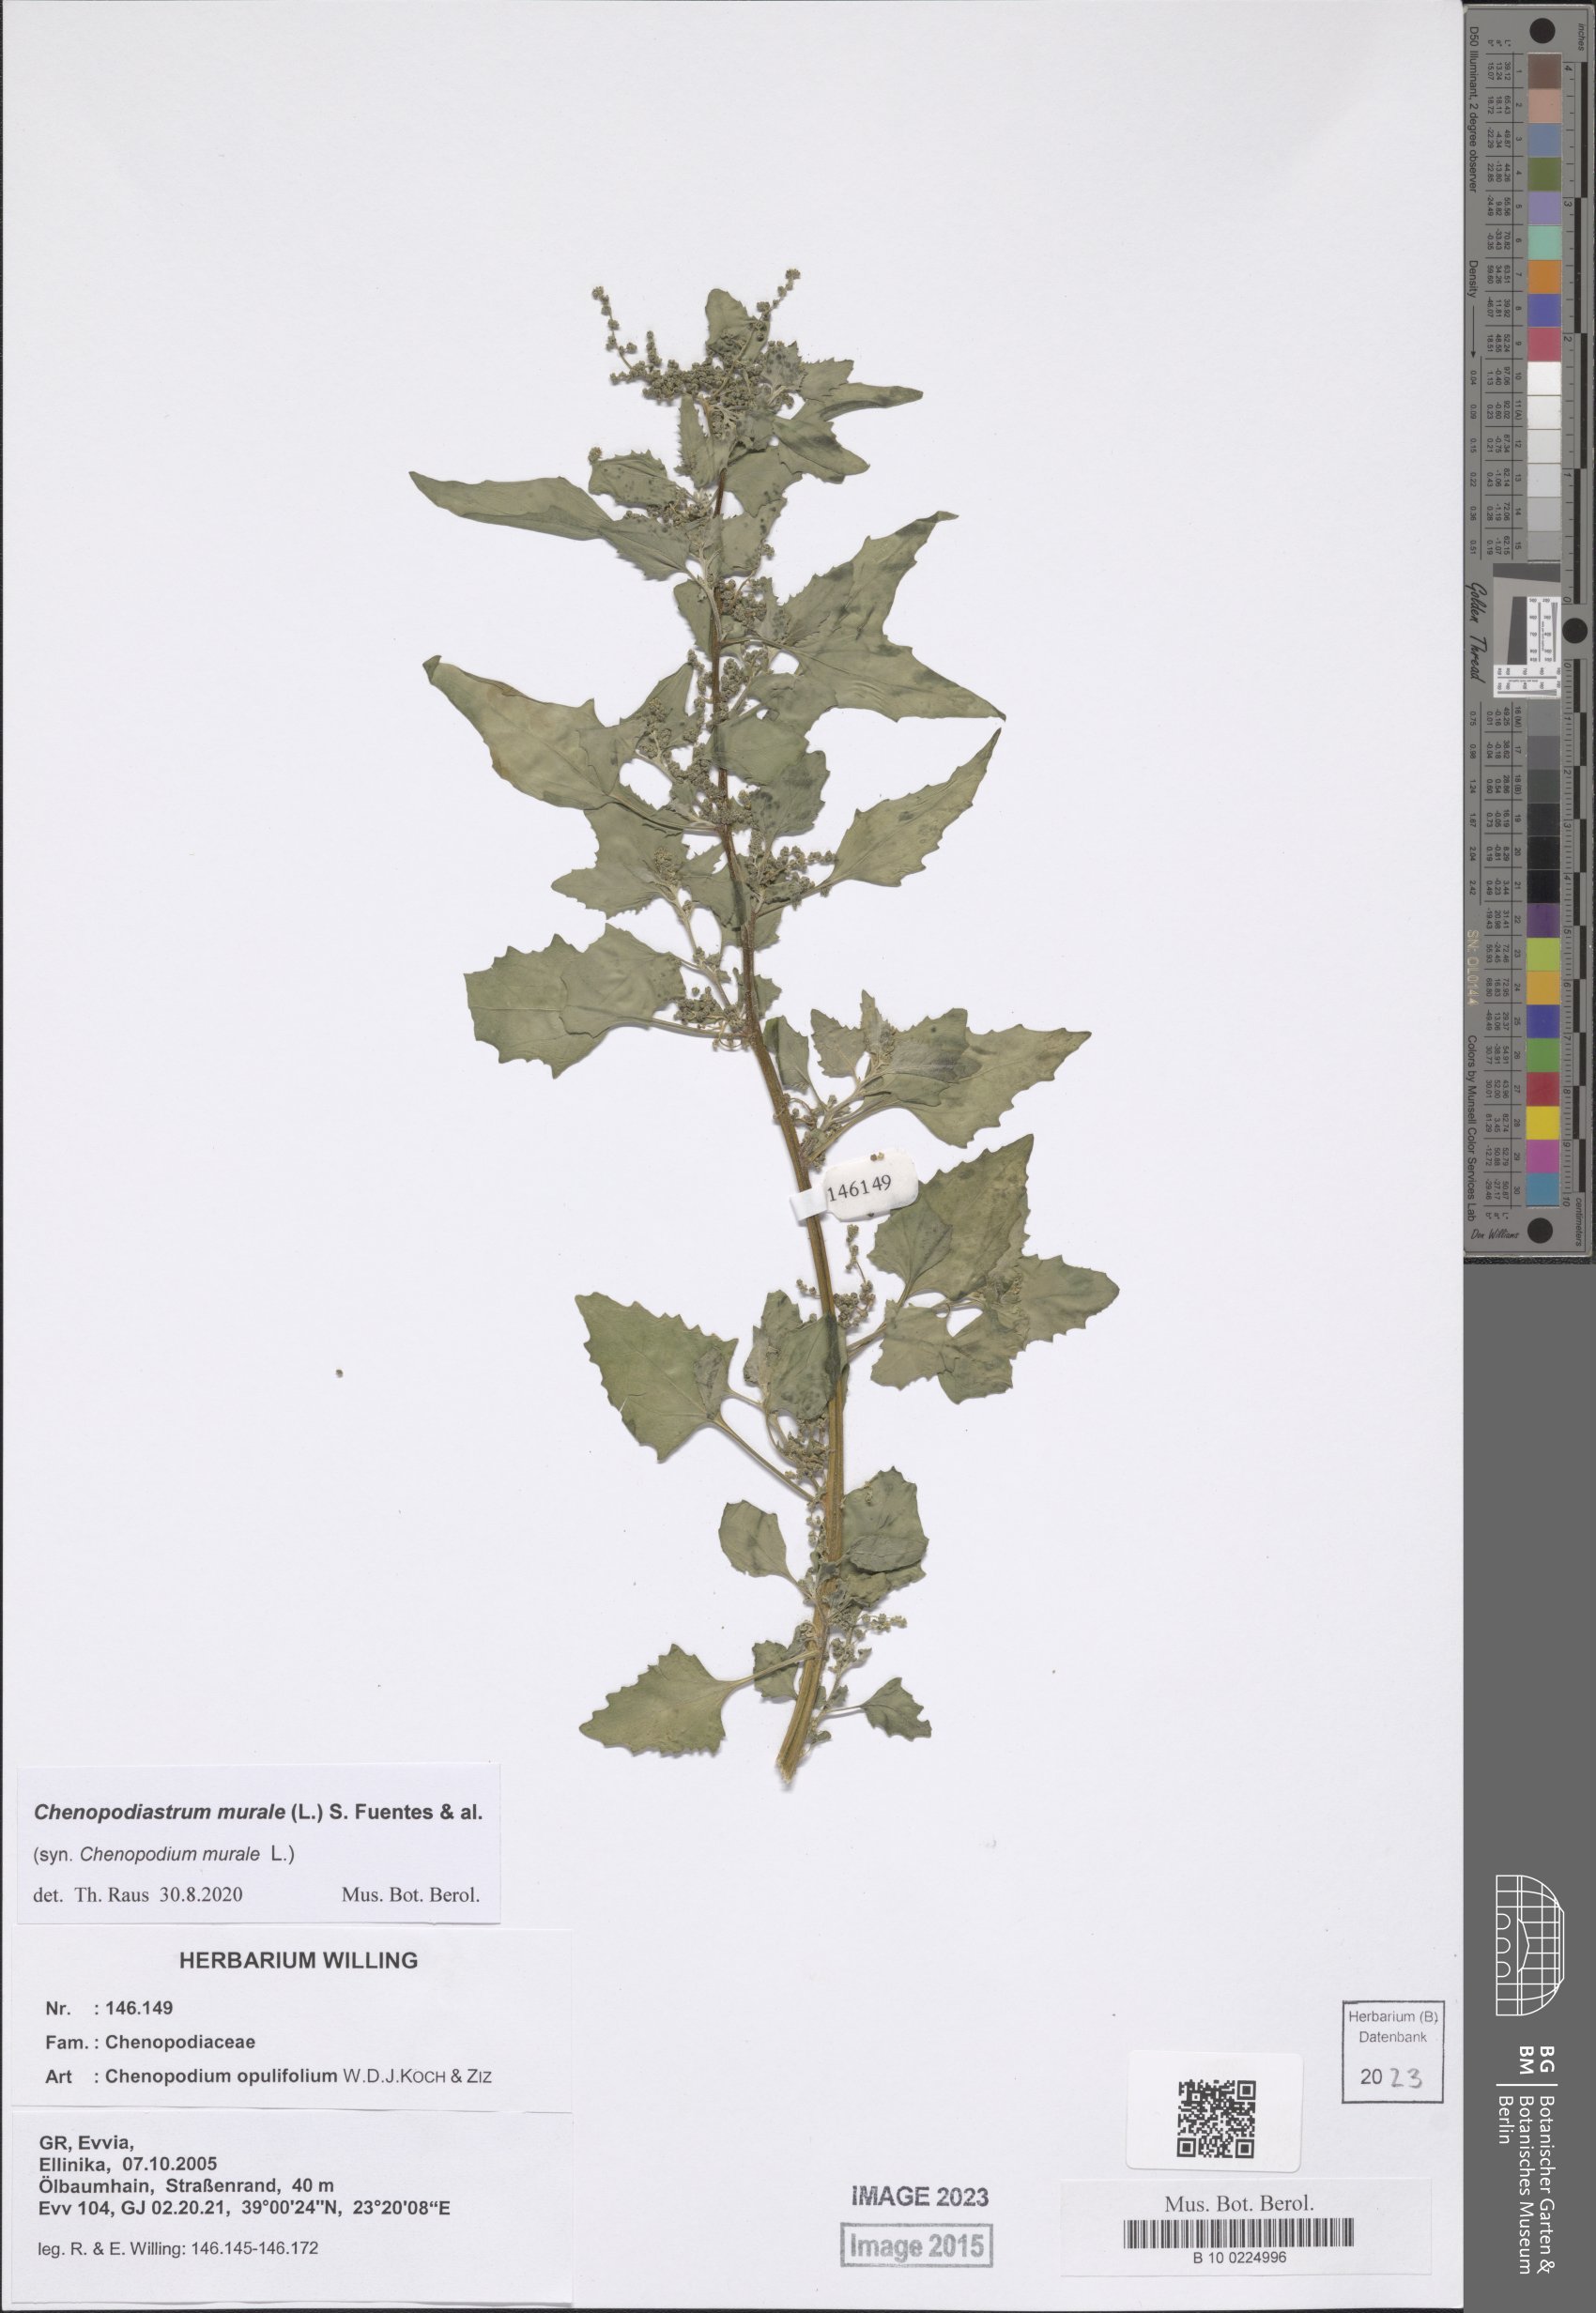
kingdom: Plantae
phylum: Tracheophyta
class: Magnoliopsida
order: Caryophyllales
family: Amaranthaceae
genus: Chenopodiastrum
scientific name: Chenopodiastrum murale
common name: Sowbane
